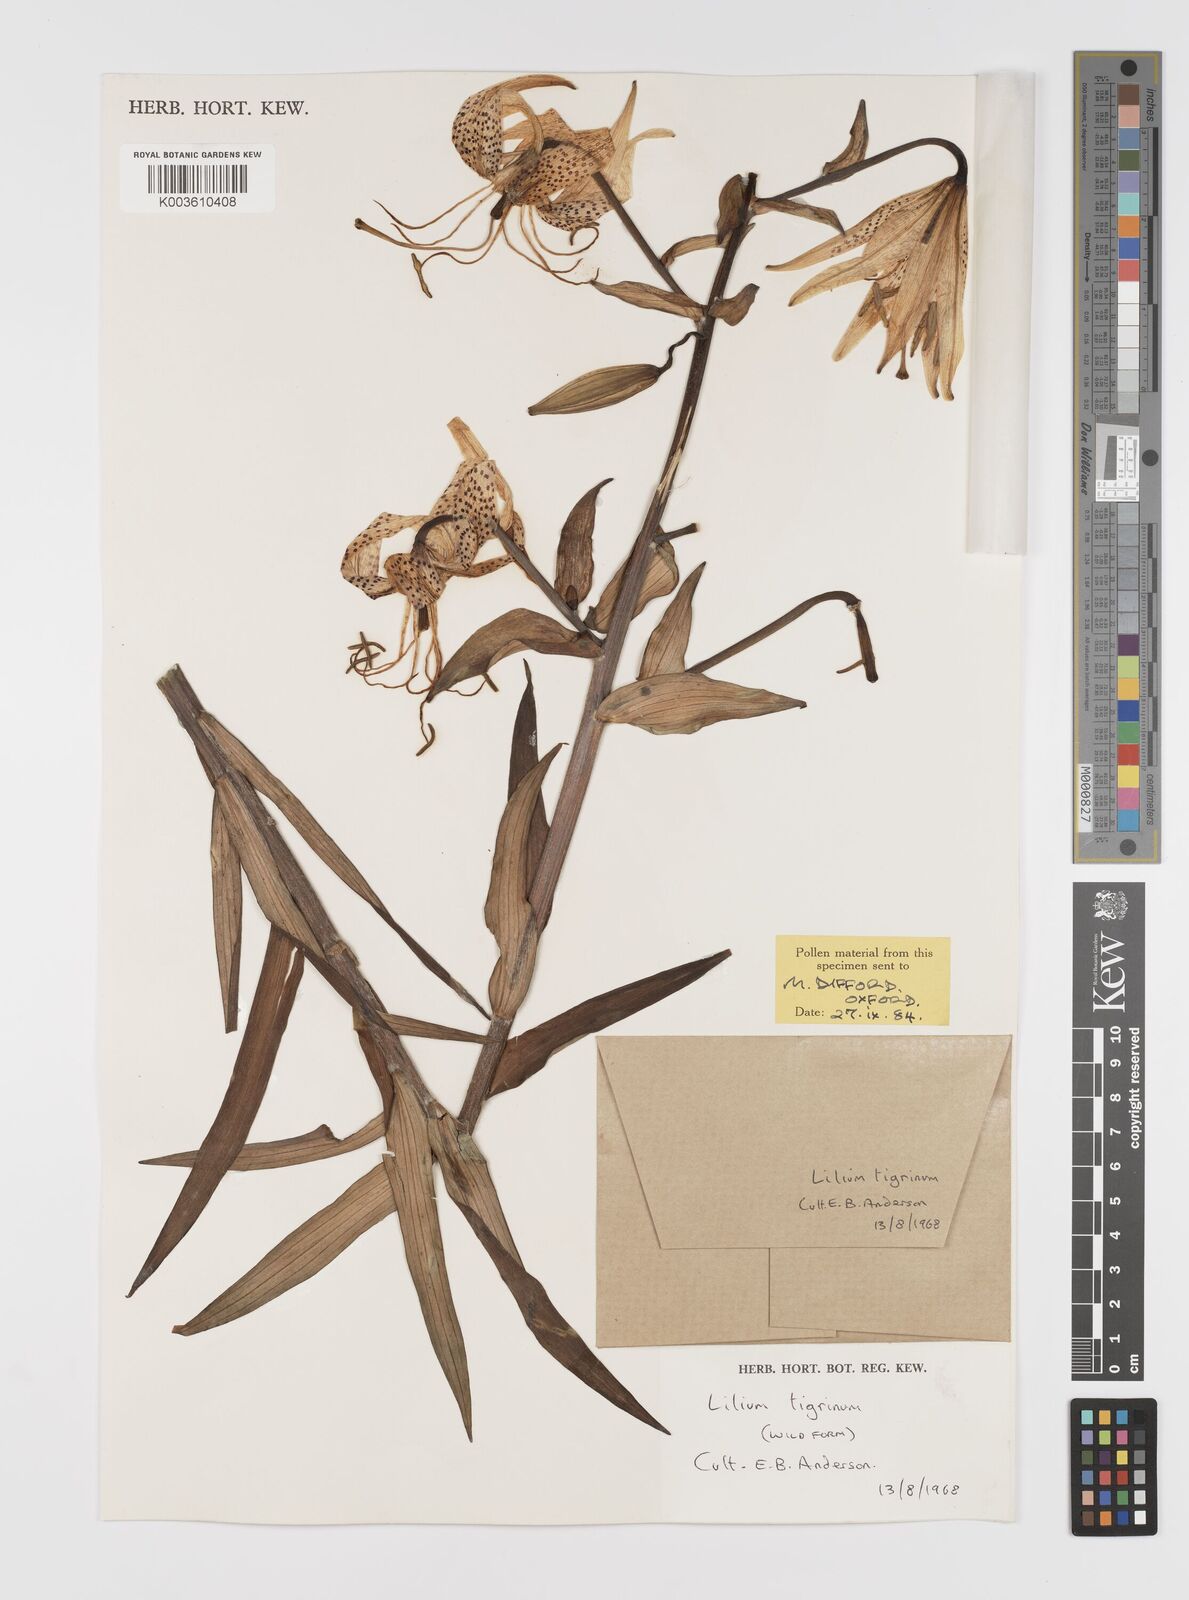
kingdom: Plantae
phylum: Tracheophyta
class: Liliopsida
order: Liliales
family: Liliaceae
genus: Lilium
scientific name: Lilium lancifolium
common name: Tiger lily
